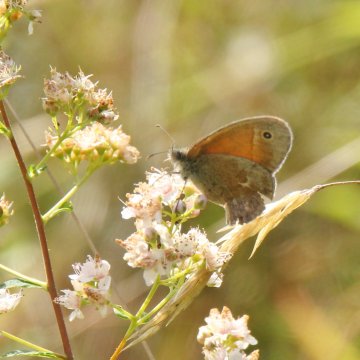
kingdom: Animalia
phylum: Arthropoda
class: Insecta
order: Lepidoptera
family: Nymphalidae
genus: Coenonympha
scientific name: Coenonympha tullia
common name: Large Heath
